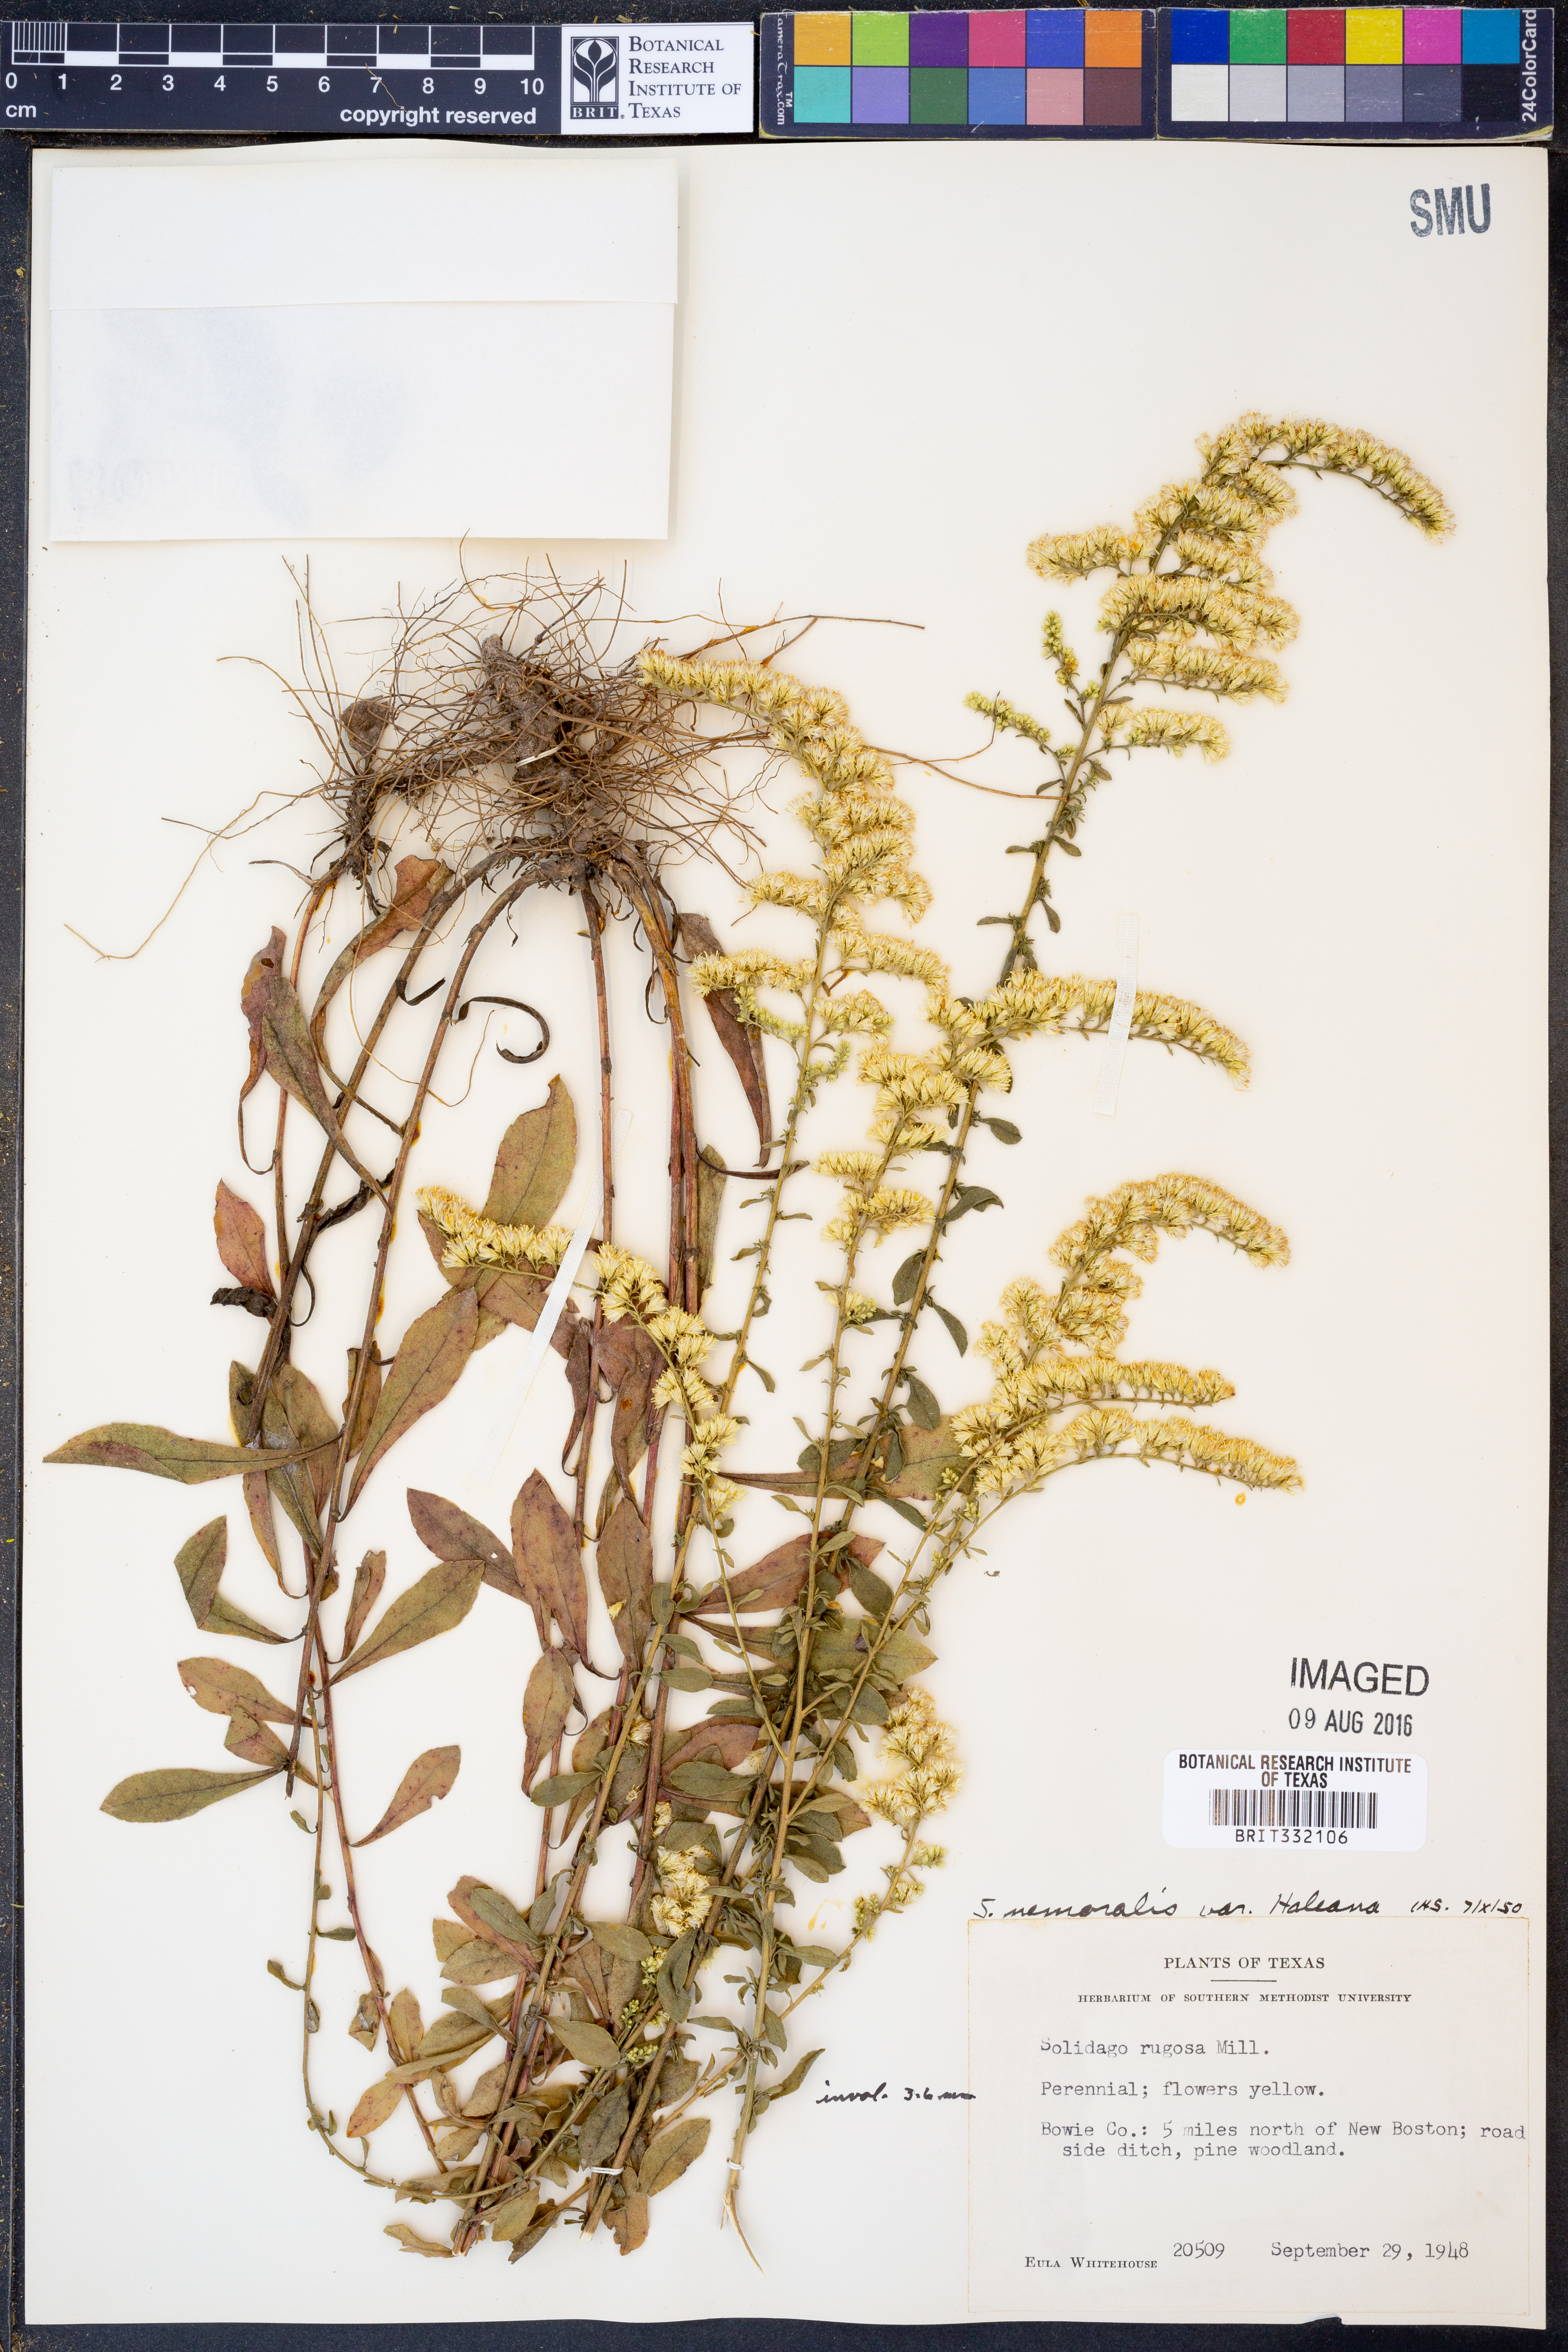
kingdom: Plantae
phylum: Tracheophyta
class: Magnoliopsida
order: Asterales
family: Asteraceae
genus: Solidago
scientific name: Solidago nemoralis
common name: Grey goldenrod
